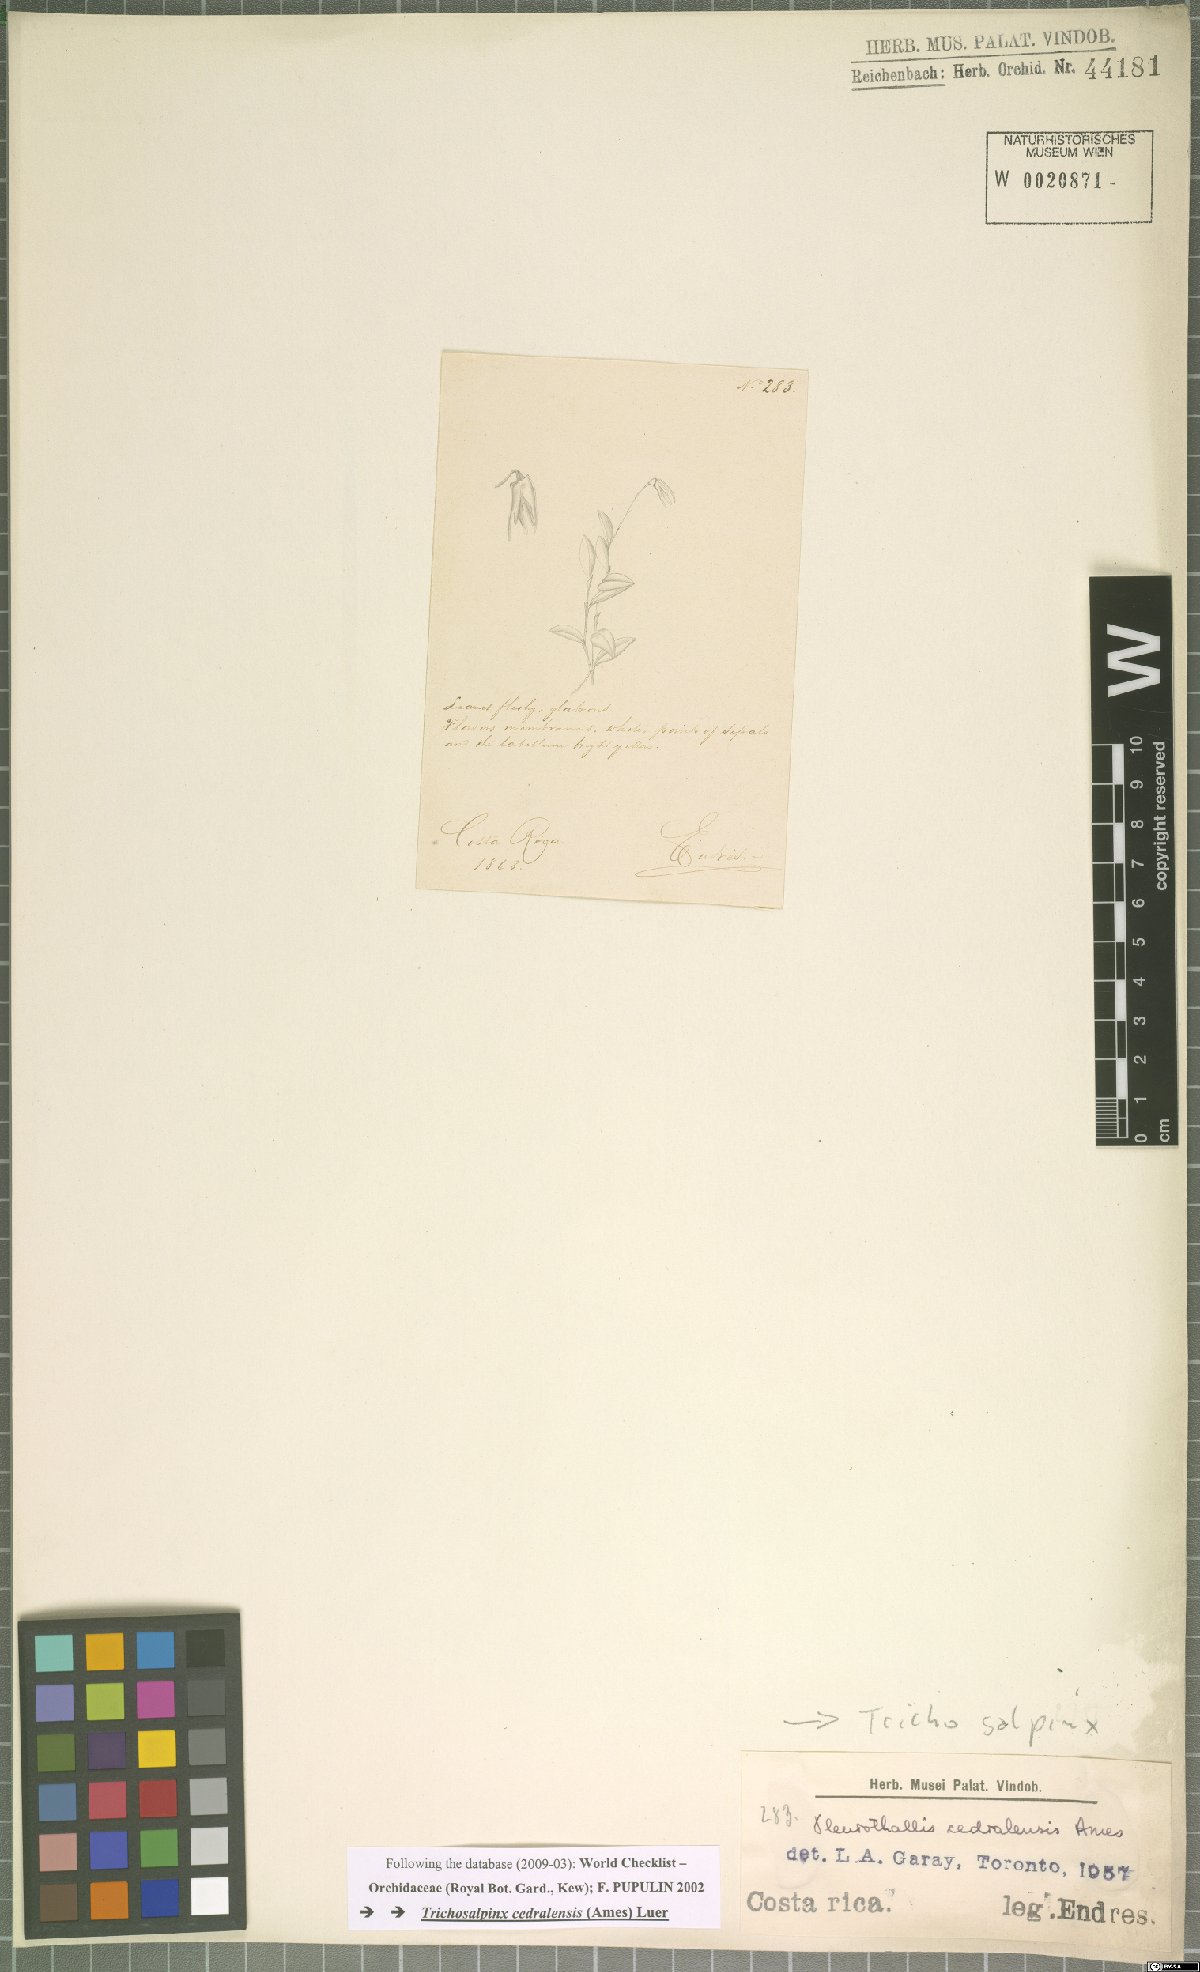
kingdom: Plantae
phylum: Tracheophyta
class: Liliopsida
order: Asparagales
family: Orchidaceae
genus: Trichosalpinx
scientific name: Trichosalpinx cedralensis
